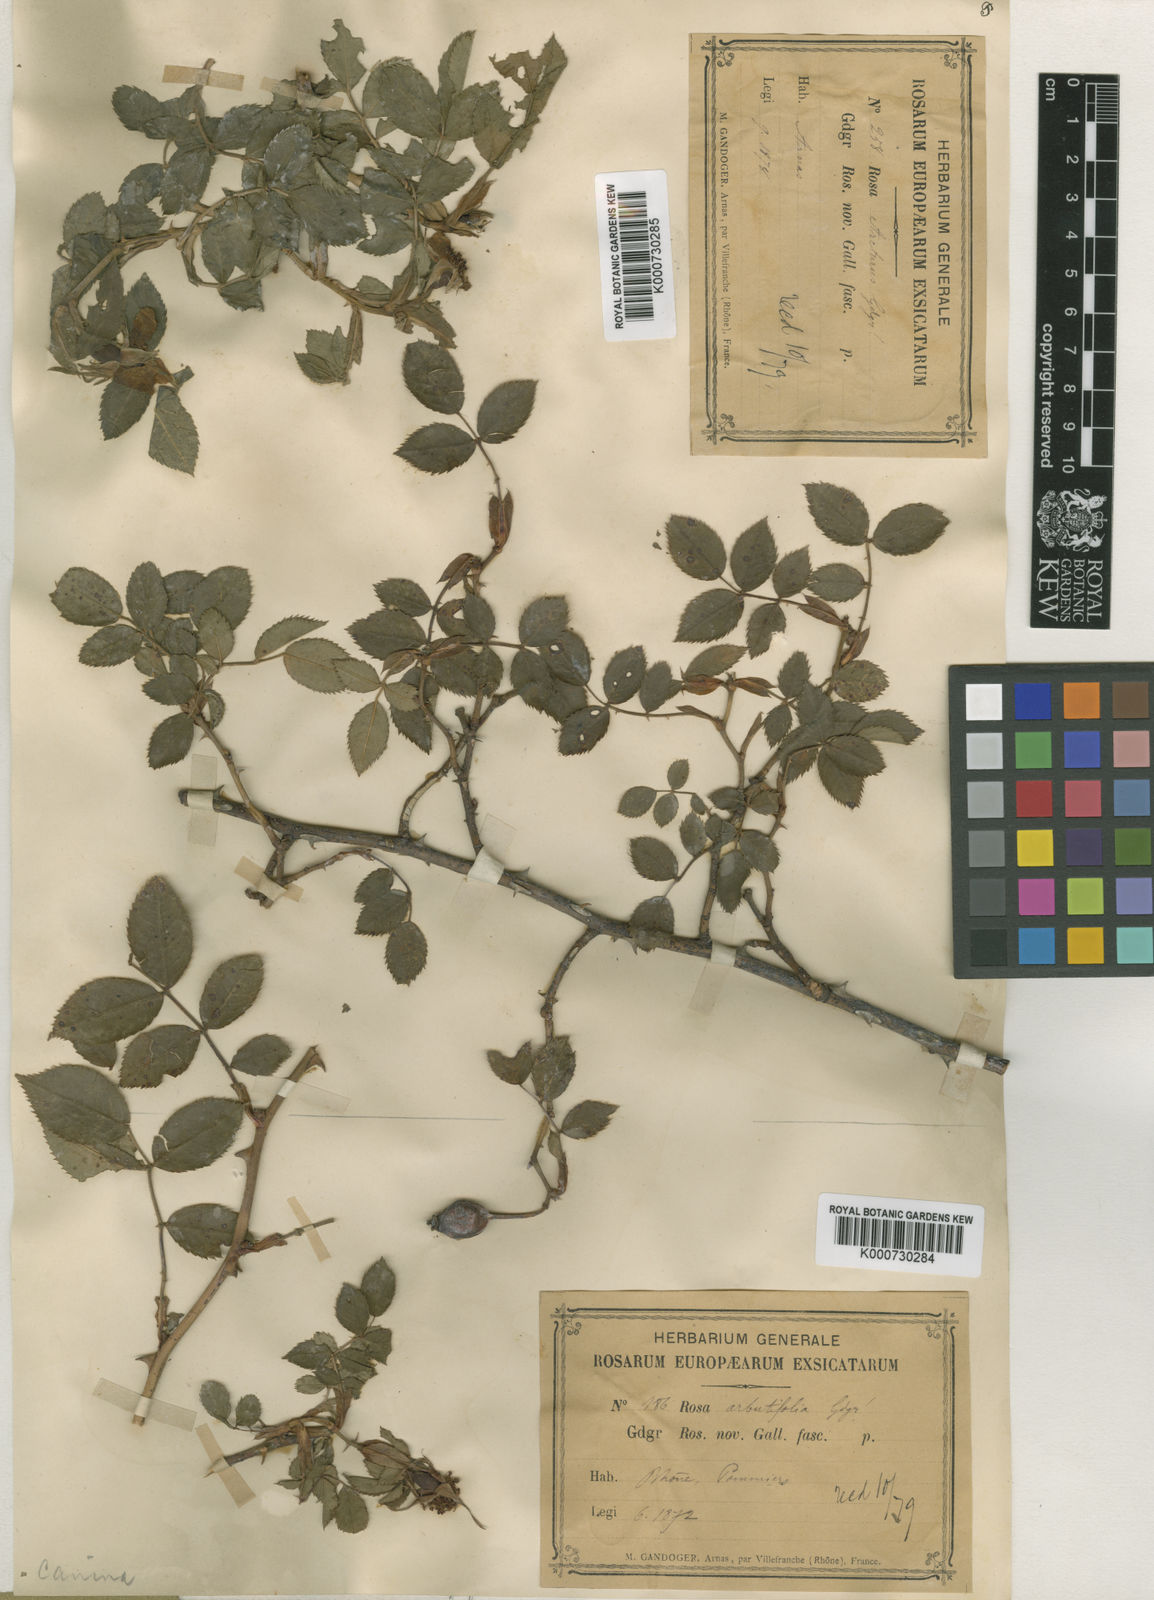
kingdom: Plantae
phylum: Tracheophyta
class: Magnoliopsida
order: Rosales
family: Rosaceae
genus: Rosa
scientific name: Rosa canina
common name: Dog rose
